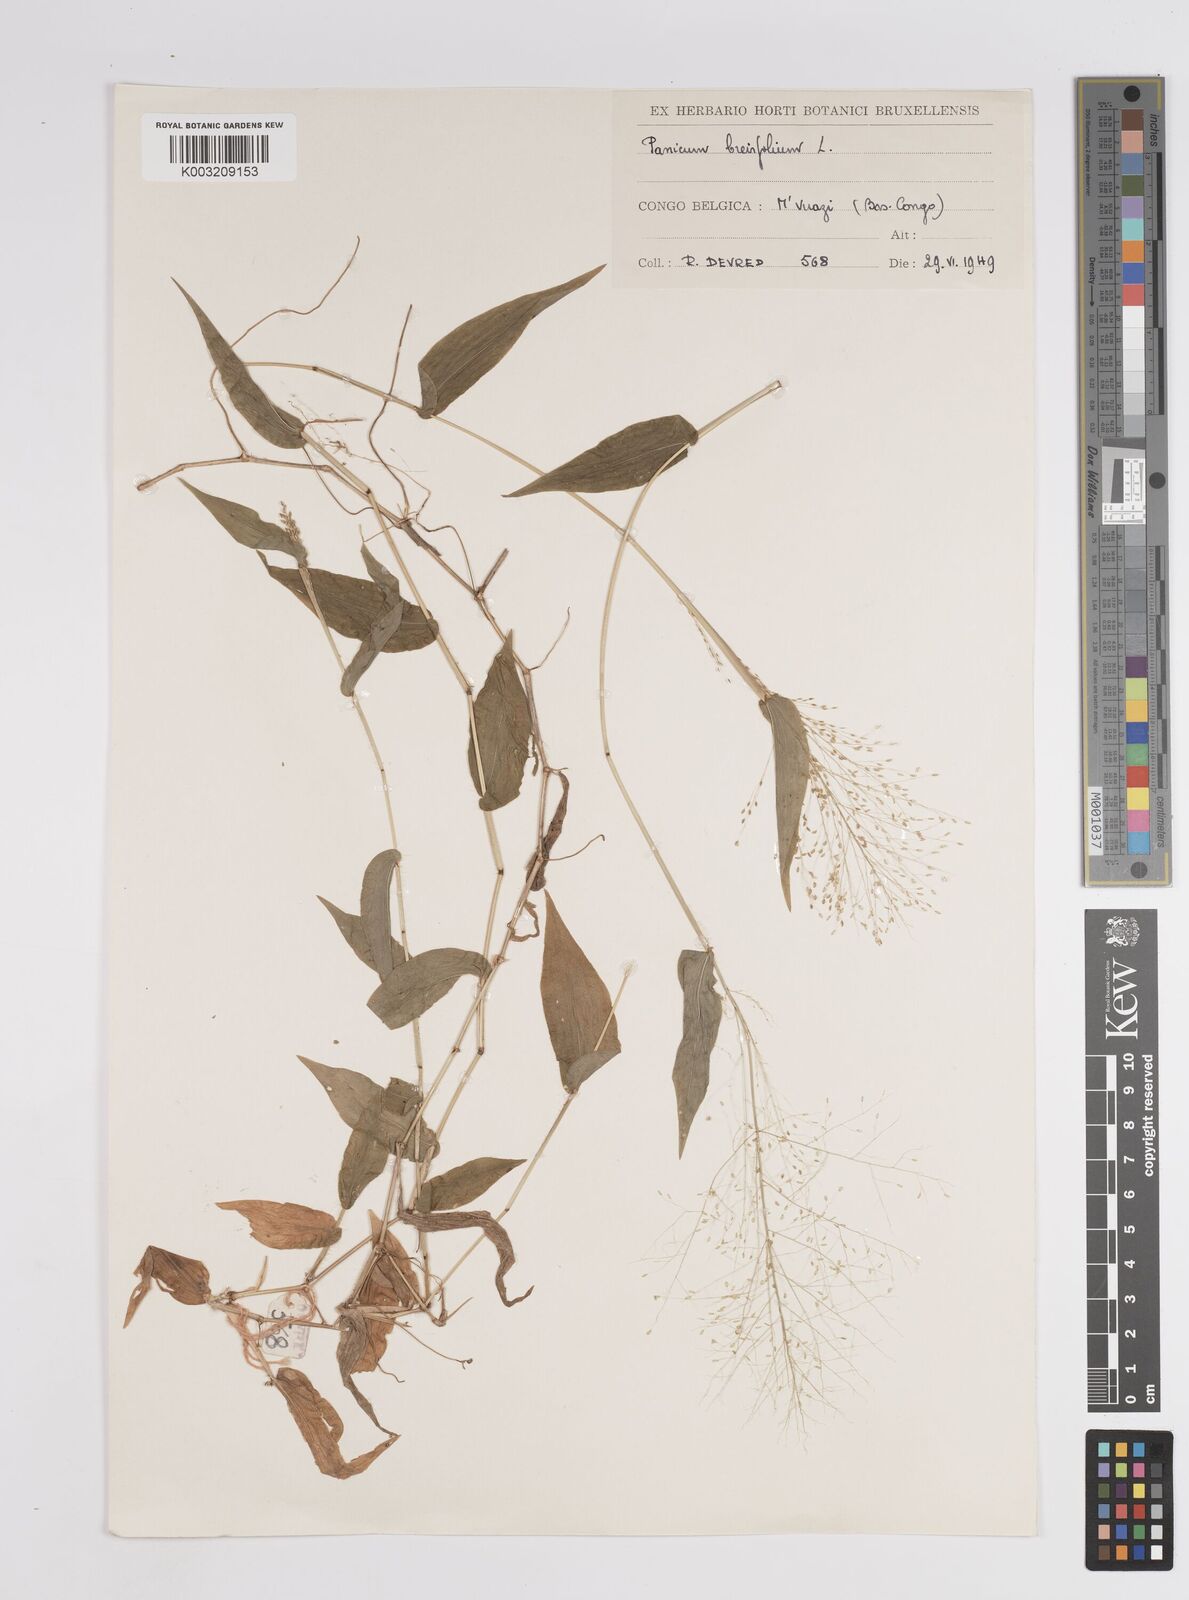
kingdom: Plantae
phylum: Tracheophyta
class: Liliopsida
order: Poales
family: Poaceae
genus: Panicum
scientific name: Panicum brevifolium
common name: Shortleaf panic grass
